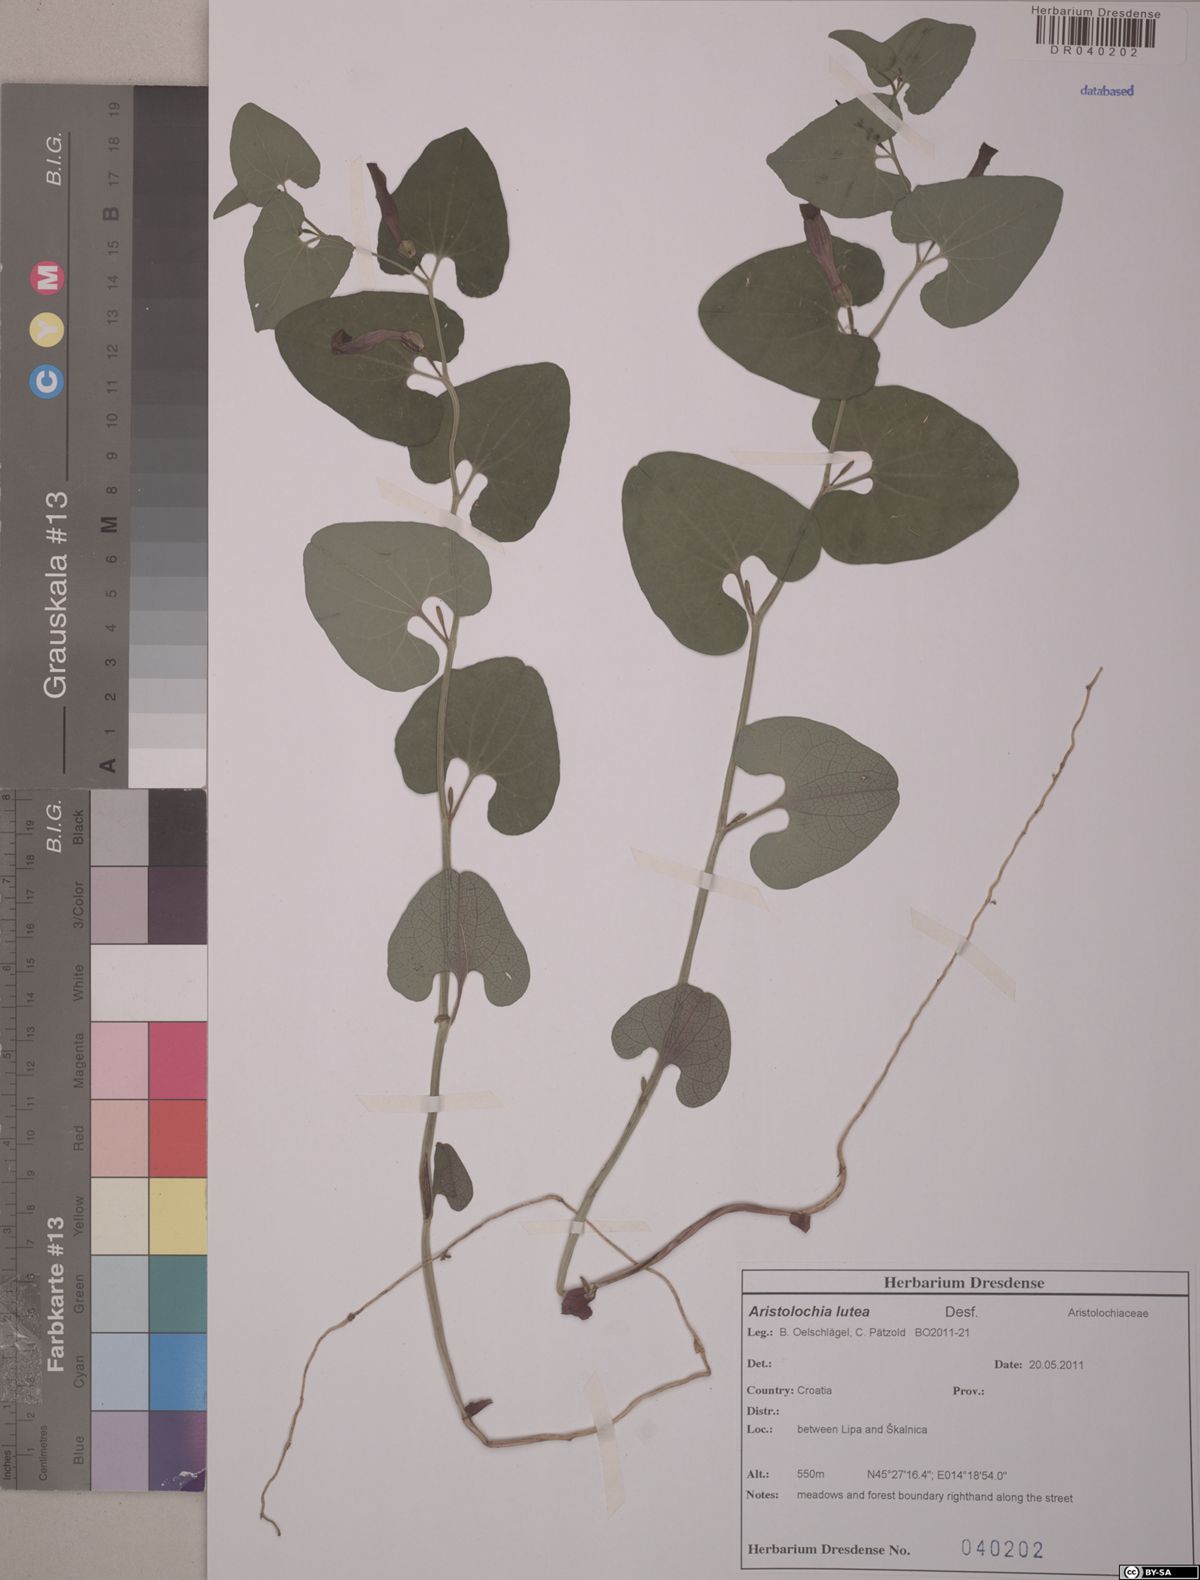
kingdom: Plantae
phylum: Tracheophyta
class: Magnoliopsida
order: Piperales
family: Aristolochiaceae
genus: Aristolochia
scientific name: Aristolochia lutea
